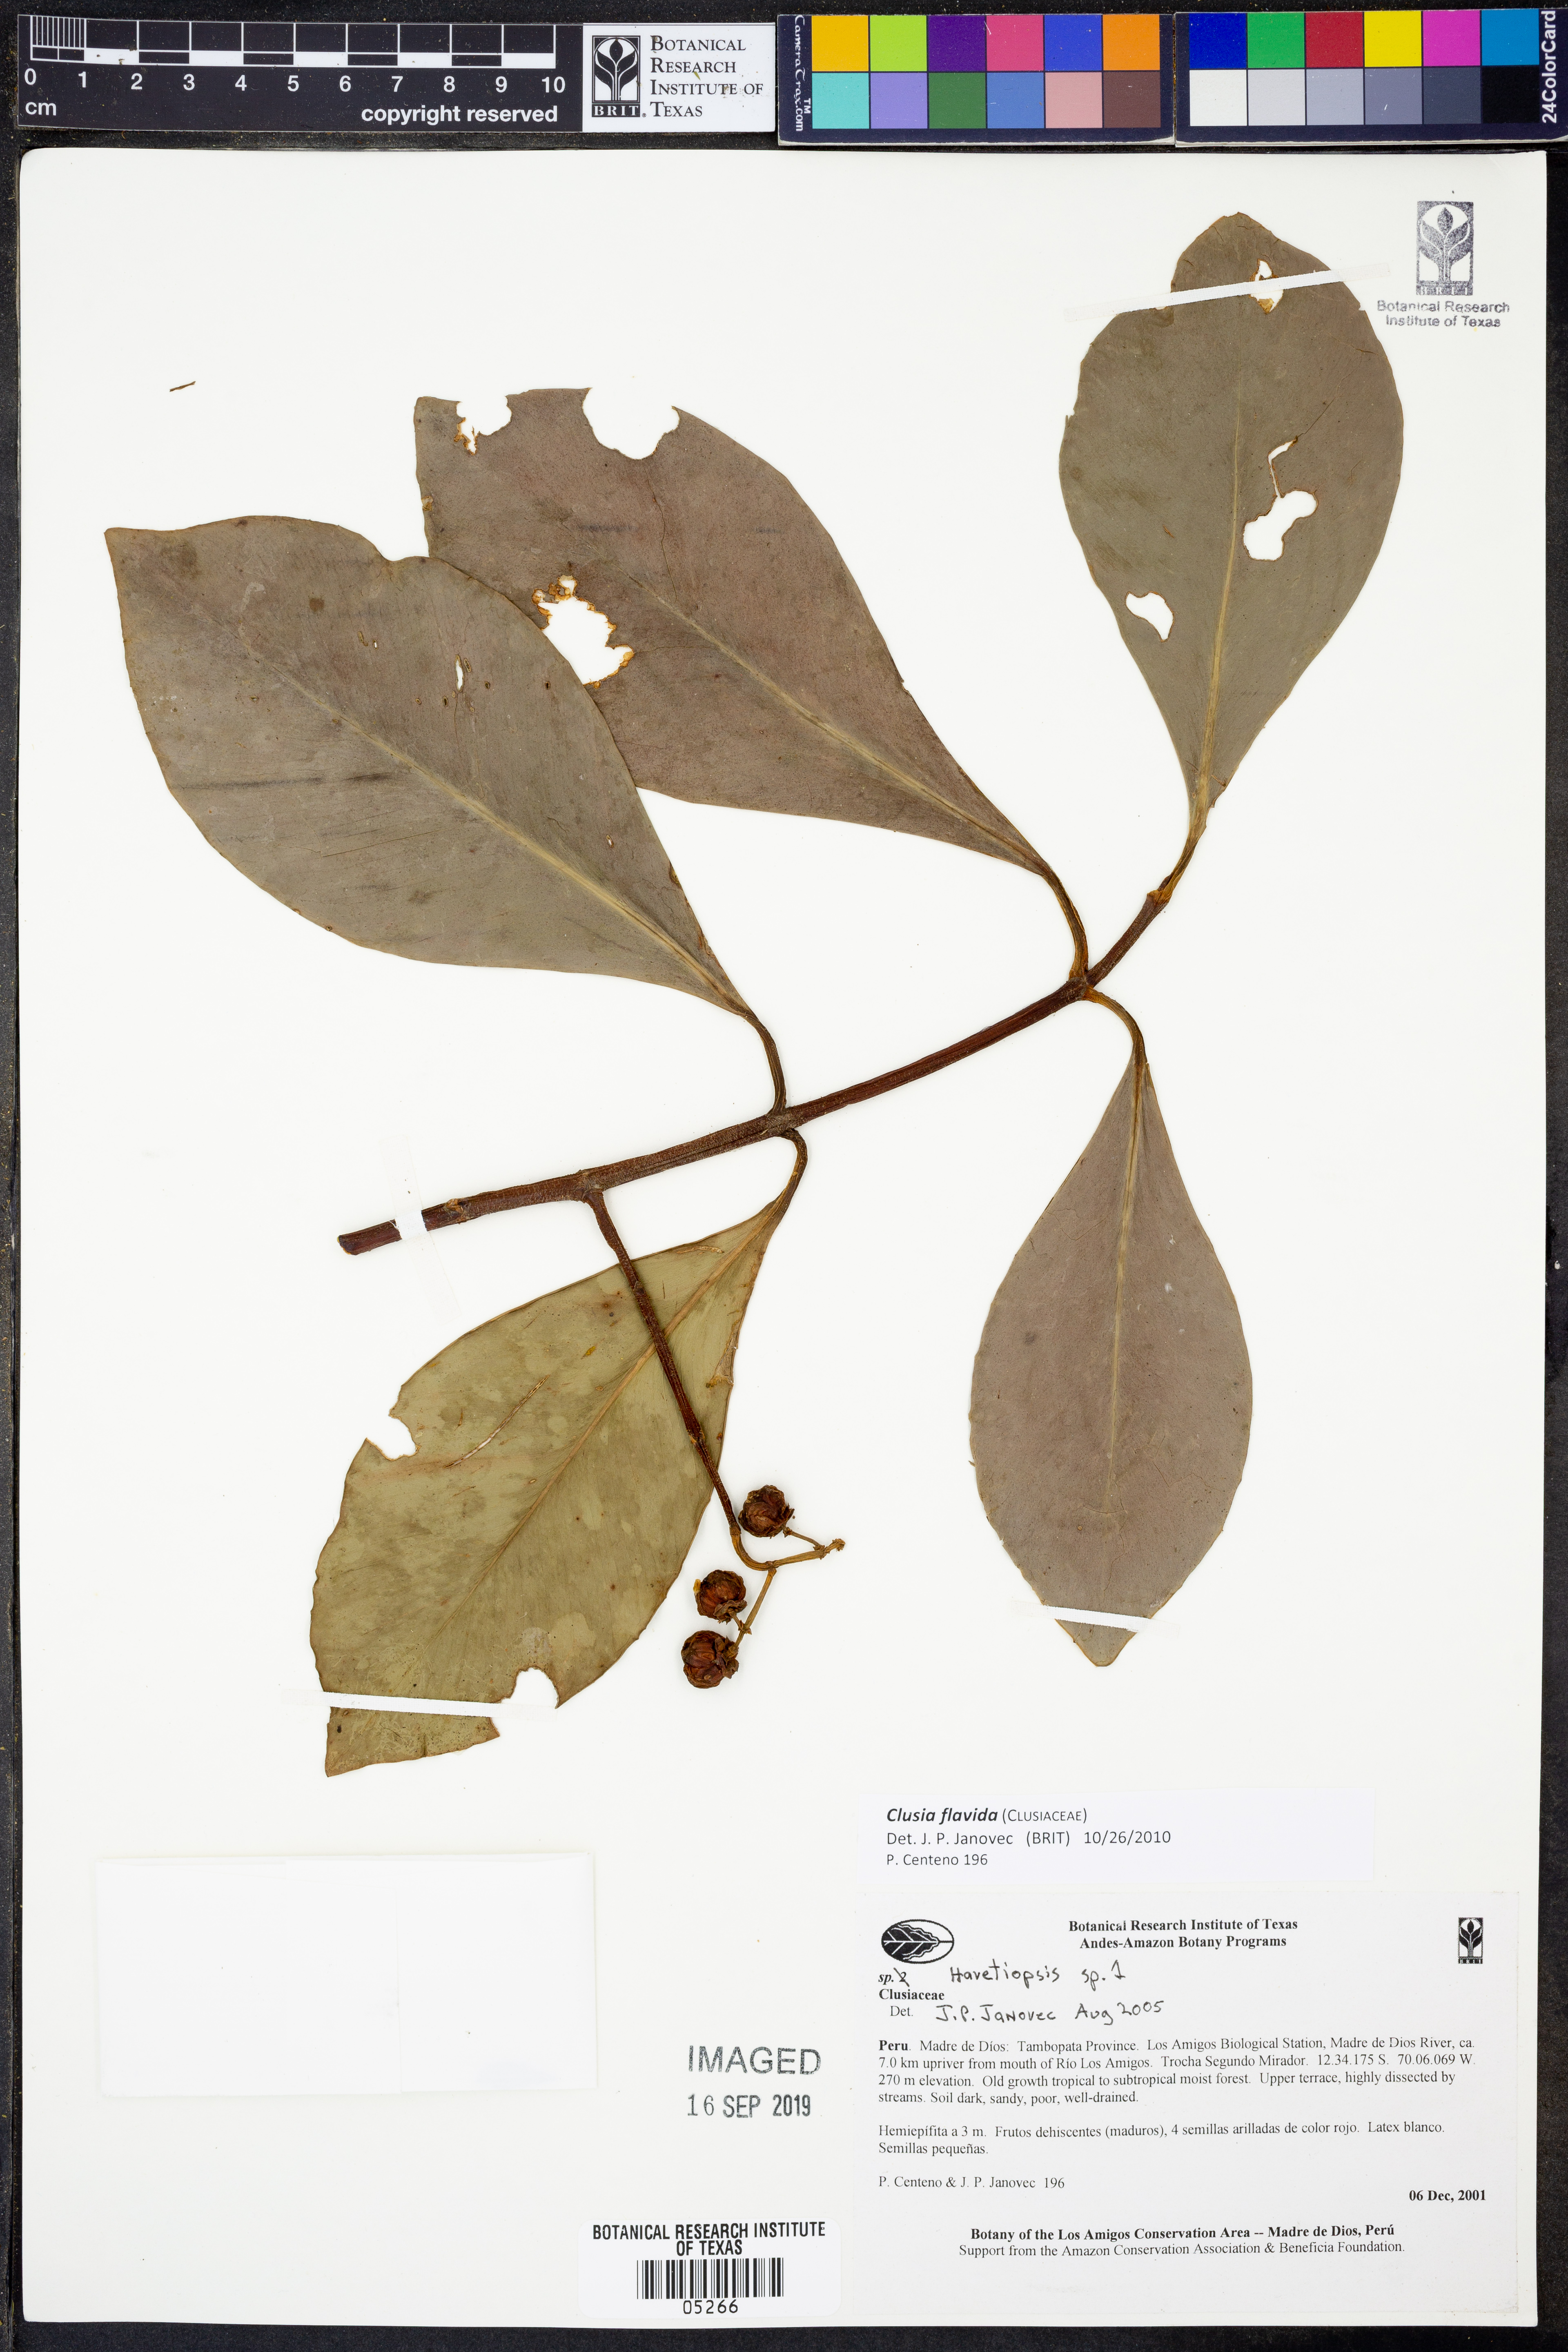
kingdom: Plantae
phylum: Tracheophyta
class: Magnoliopsida
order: Malpighiales
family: Clusiaceae
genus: Clusia
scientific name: Clusia flavida
